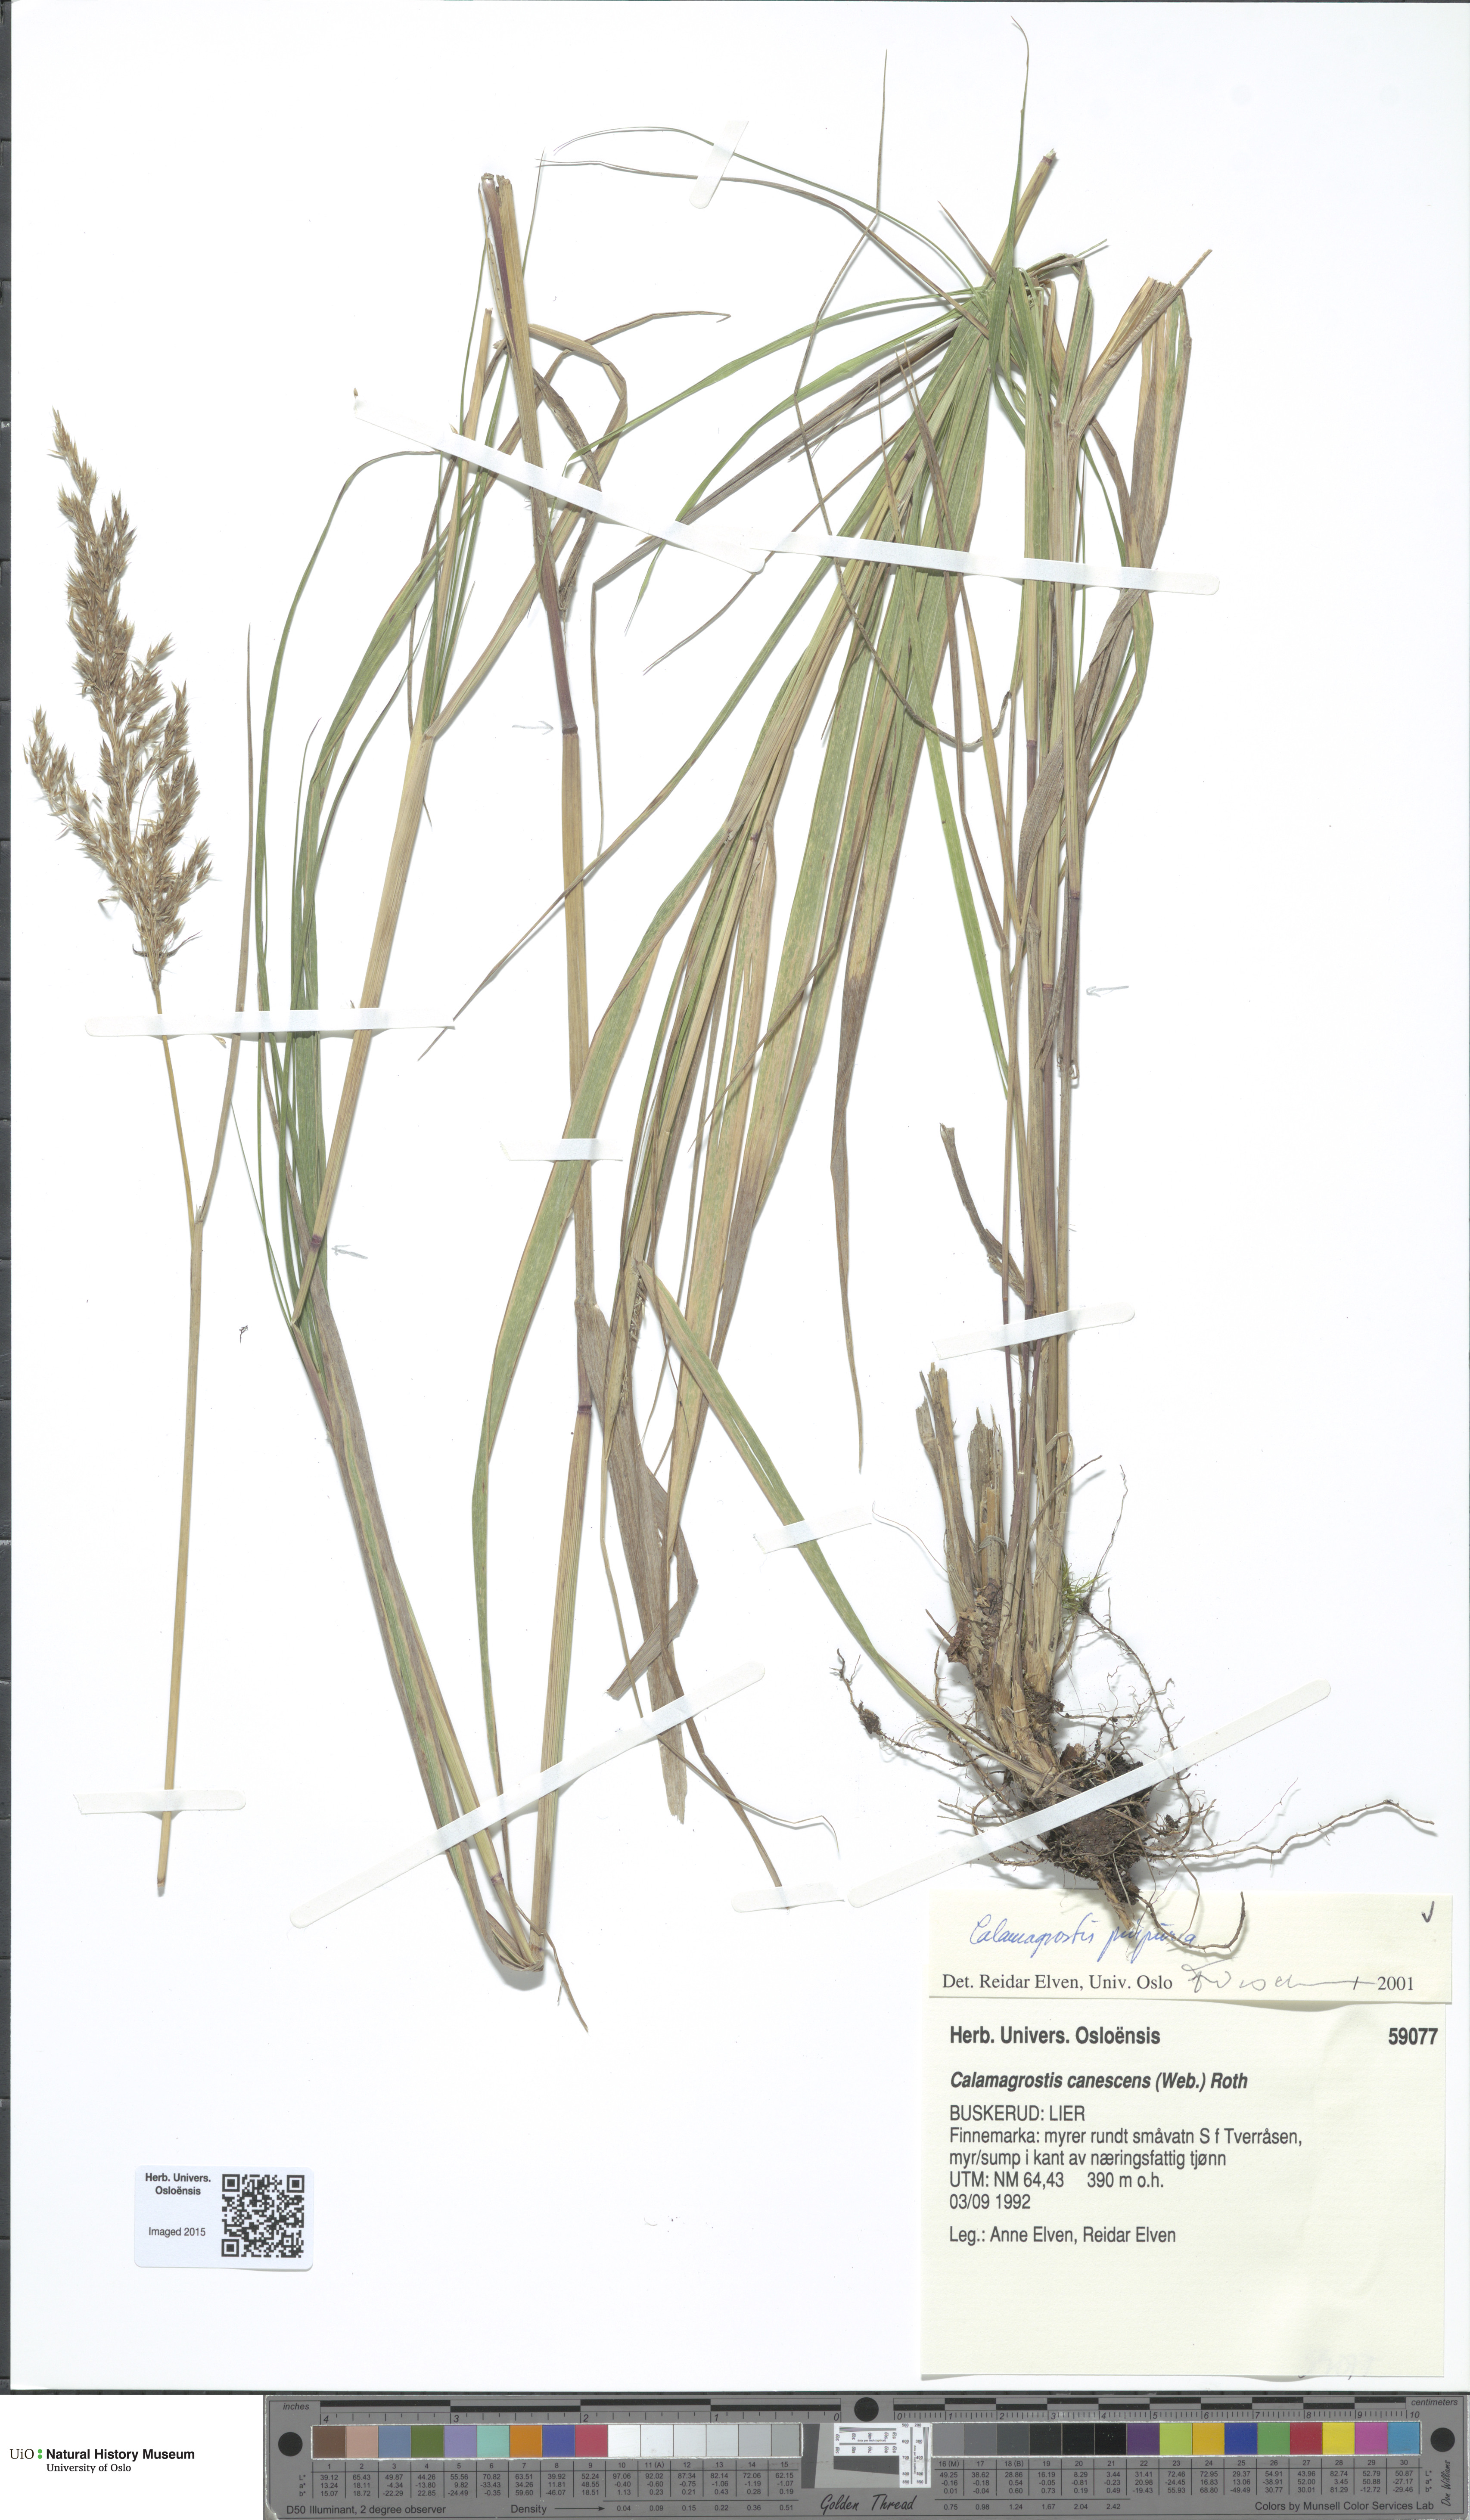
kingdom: Plantae
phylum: Tracheophyta
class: Liliopsida
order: Poales
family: Poaceae
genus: Calamagrostis
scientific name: Calamagrostis purpurea
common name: Scandinavian small-reed
